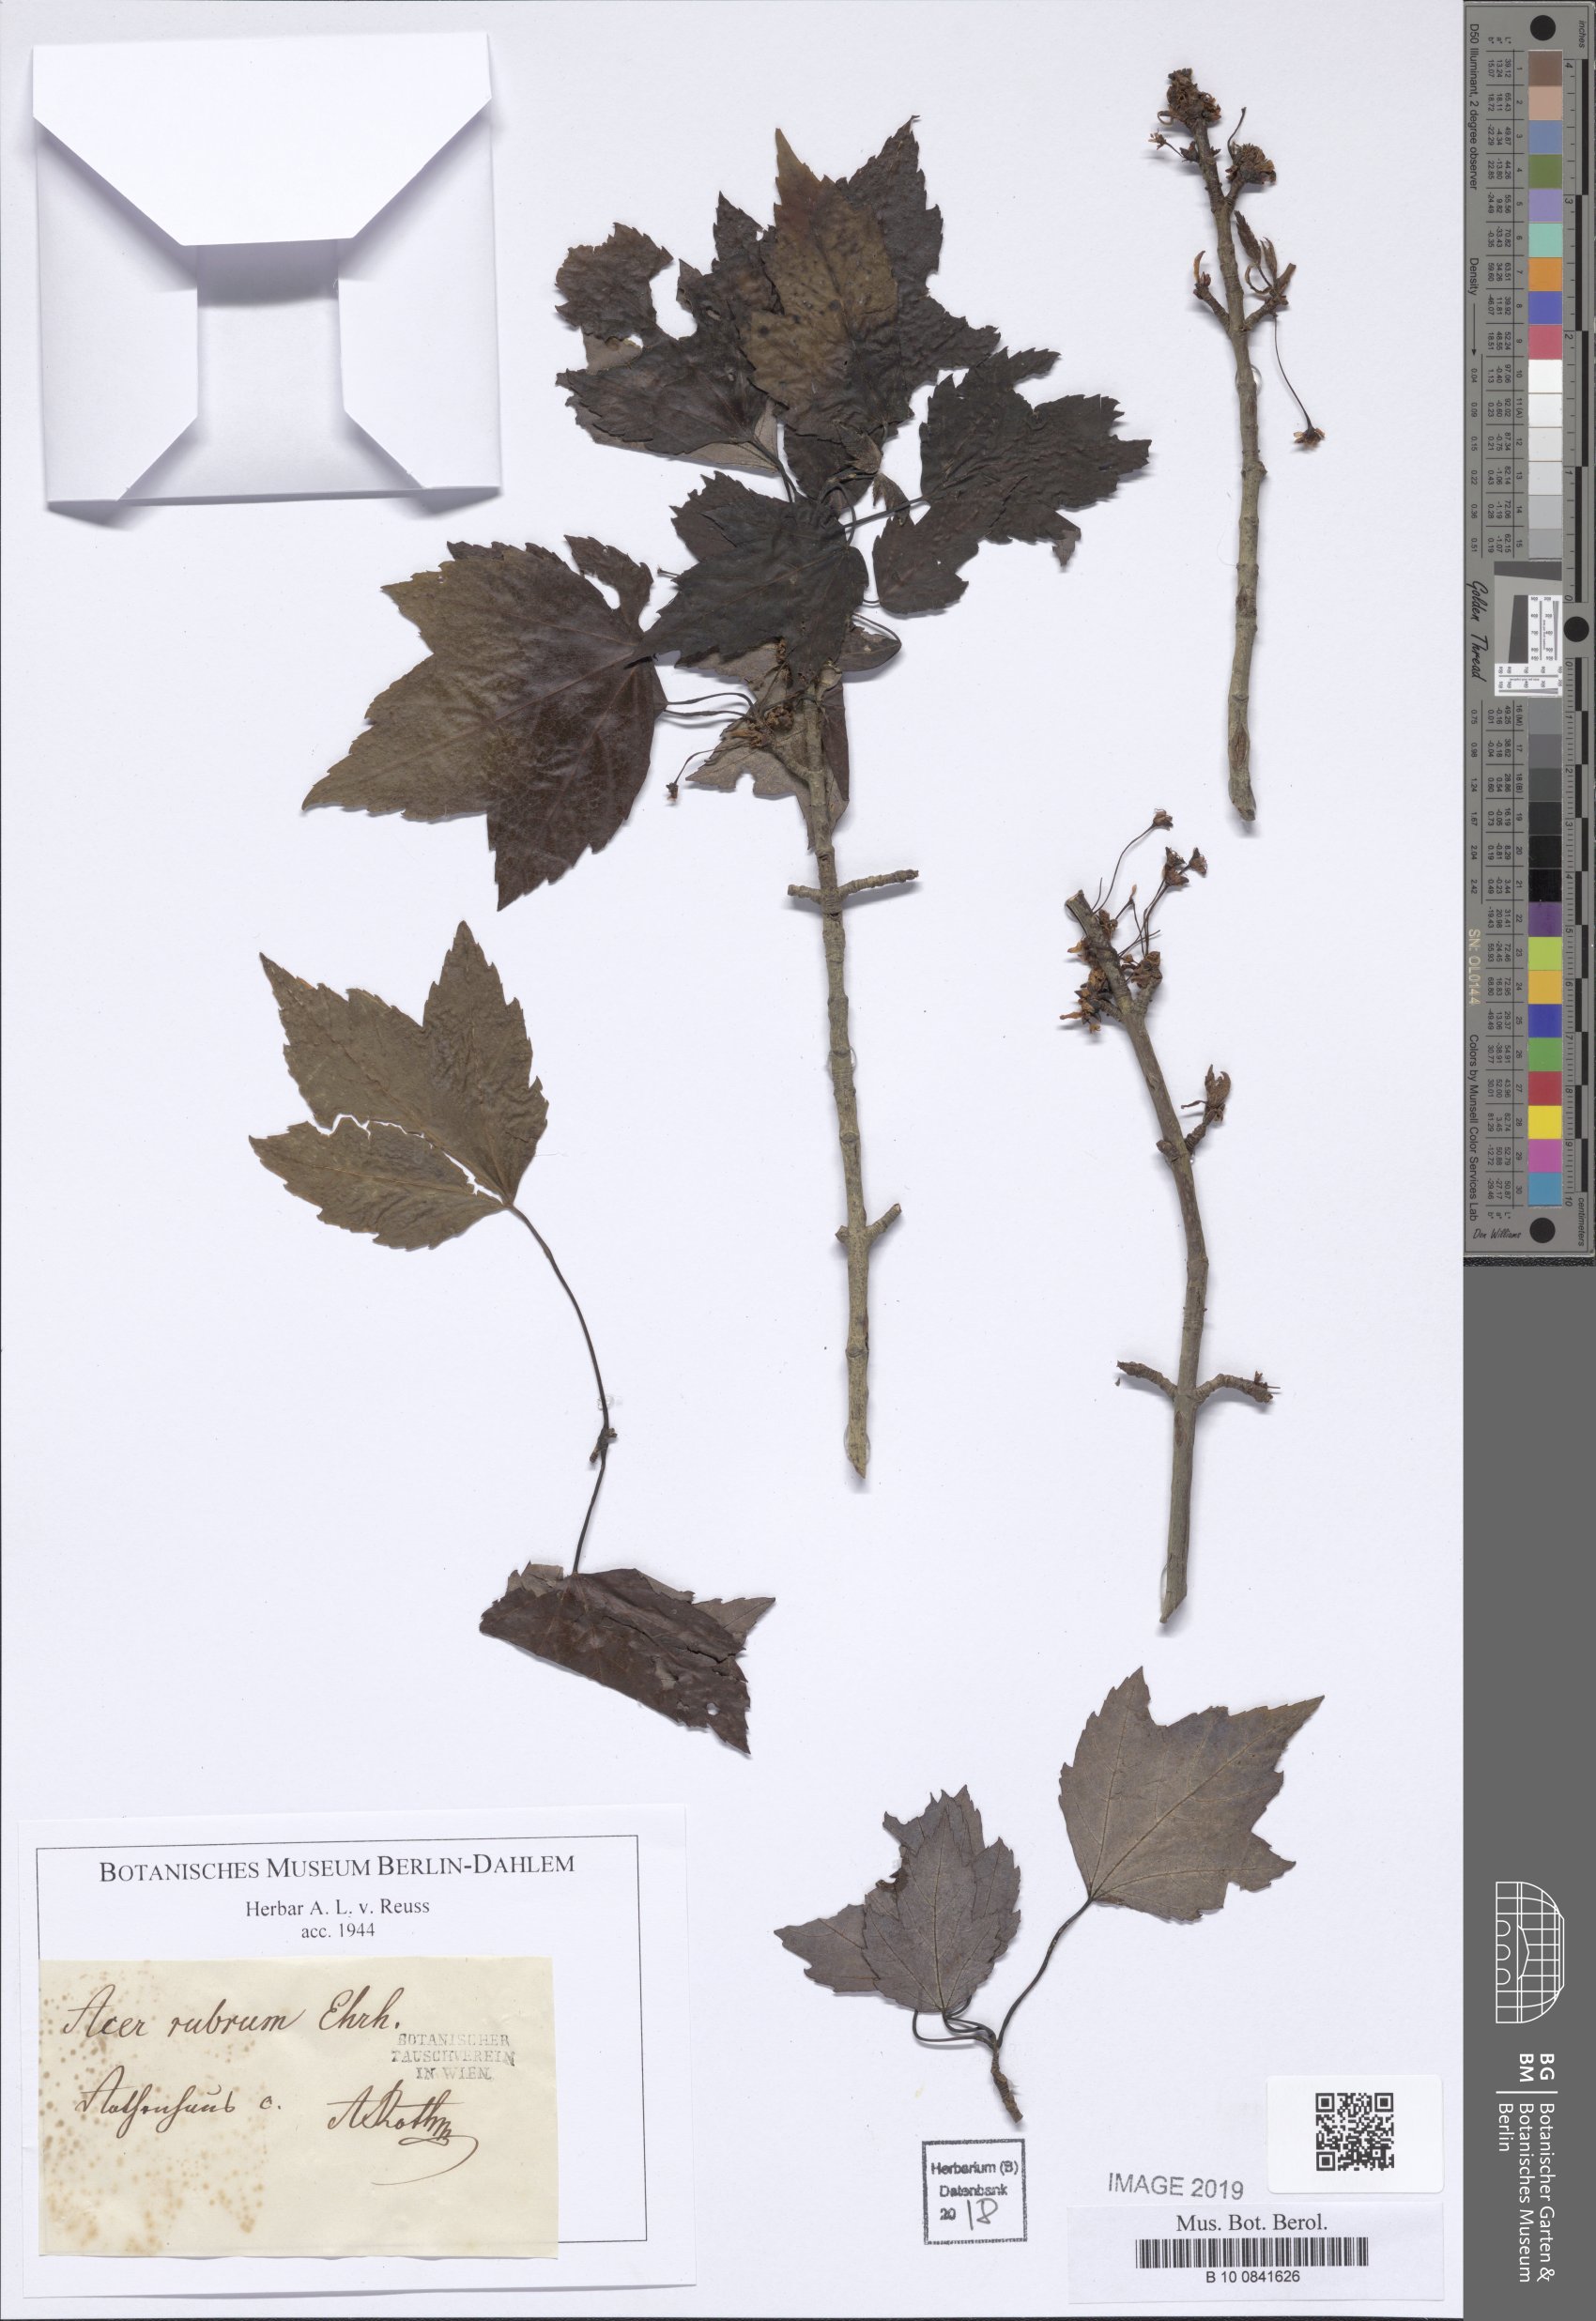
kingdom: Plantae
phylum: Tracheophyta
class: Magnoliopsida
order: Sapindales
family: Sapindaceae
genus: Acer
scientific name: Acer rubrum
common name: Red maple
